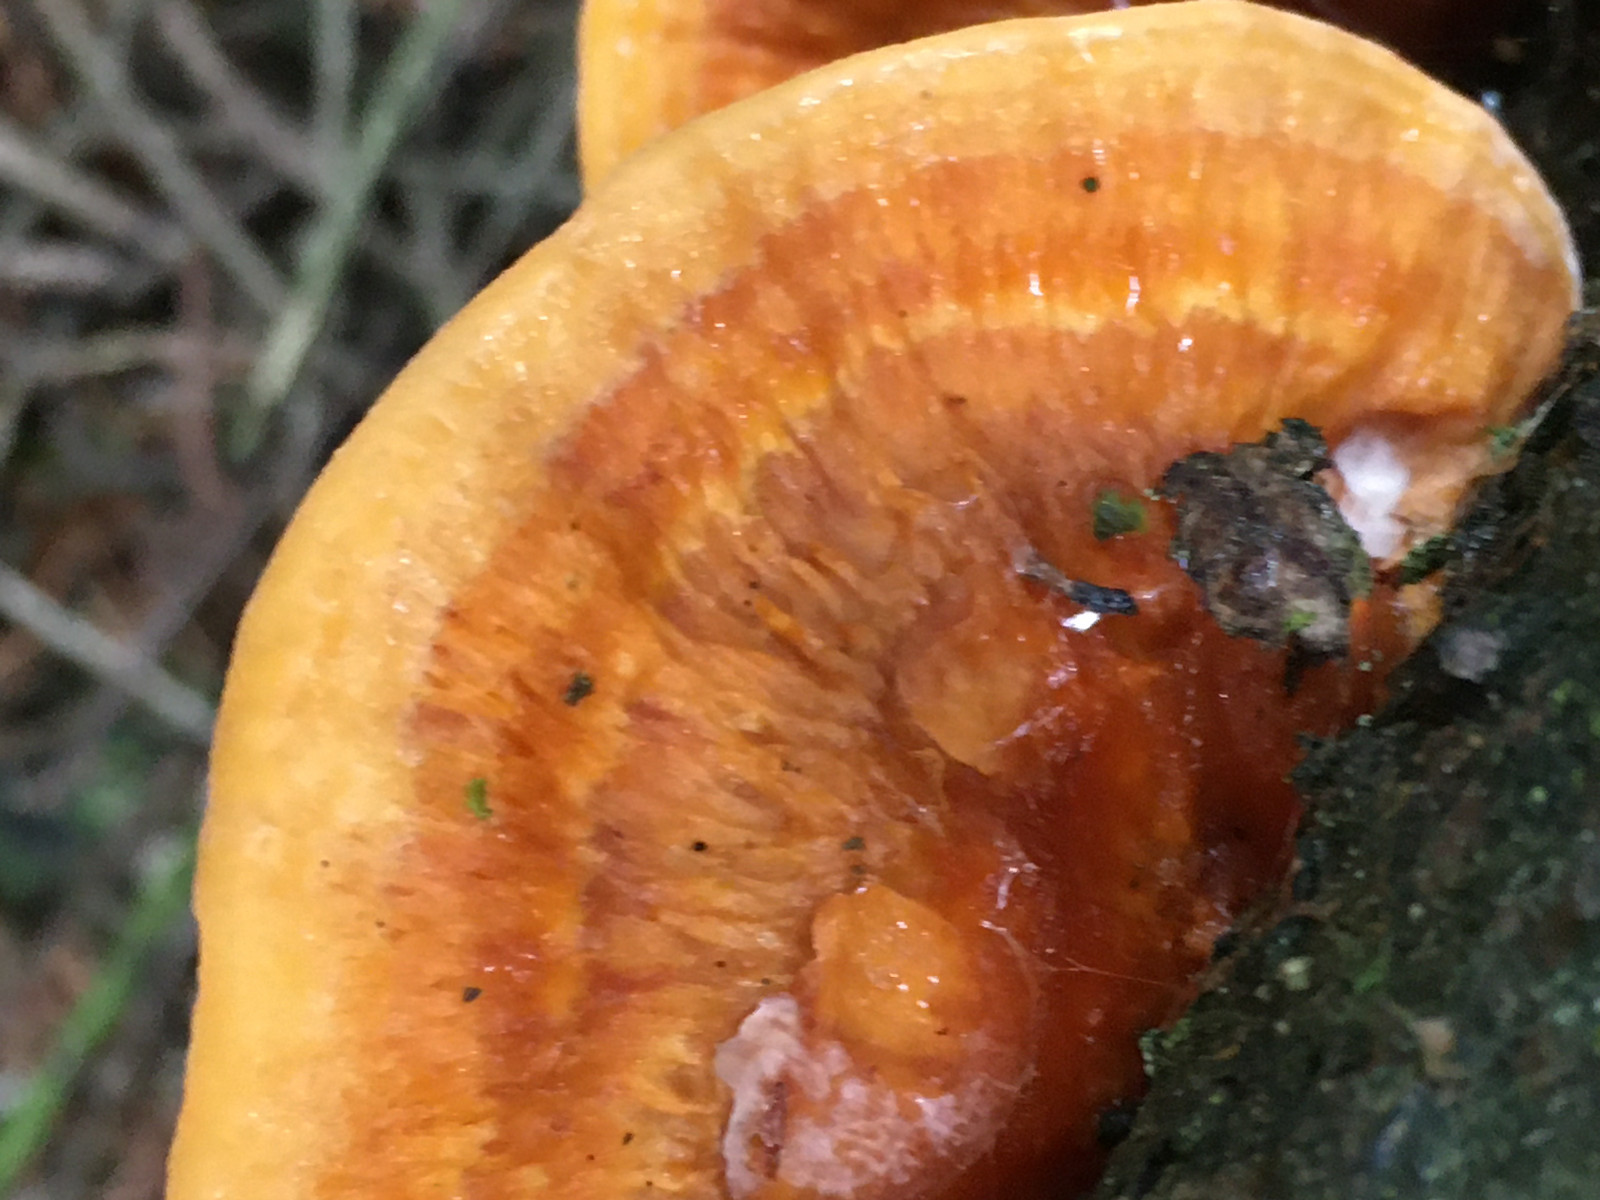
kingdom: Fungi
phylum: Basidiomycota
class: Agaricomycetes
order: Polyporales
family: Pycnoporellaceae
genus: Pycnoporellus
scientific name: Pycnoporellus fulgens
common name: flammeporesvamp
